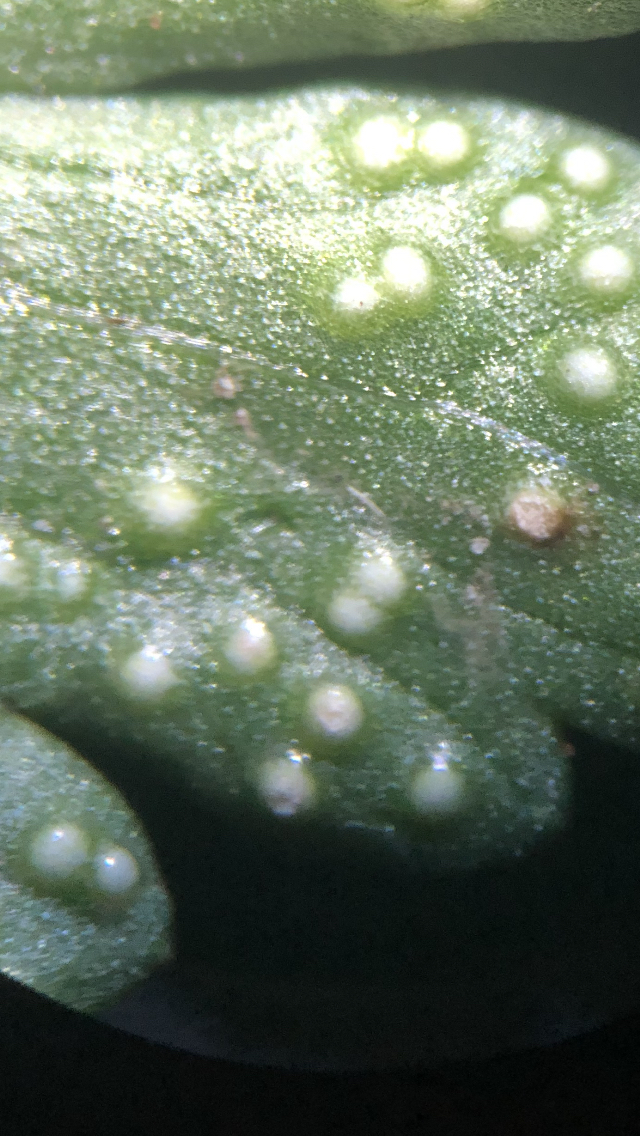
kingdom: Fungi
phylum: Basidiomycota
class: Pucciniomycetes
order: Pucciniales
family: Ochropsoraceae
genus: Ochropsora
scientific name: Ochropsora ariae
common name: anemone-okkerpletrust
